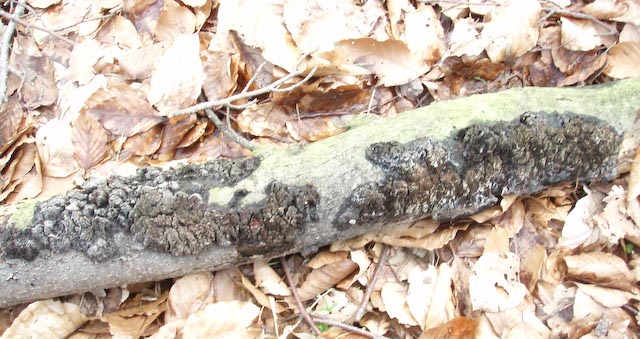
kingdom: Fungi
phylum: Basidiomycota
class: Agaricomycetes
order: Hymenochaetales
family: Hymenochaetaceae
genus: Mensularia
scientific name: Mensularia nodulosa
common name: bøge-spejlporesvamp
